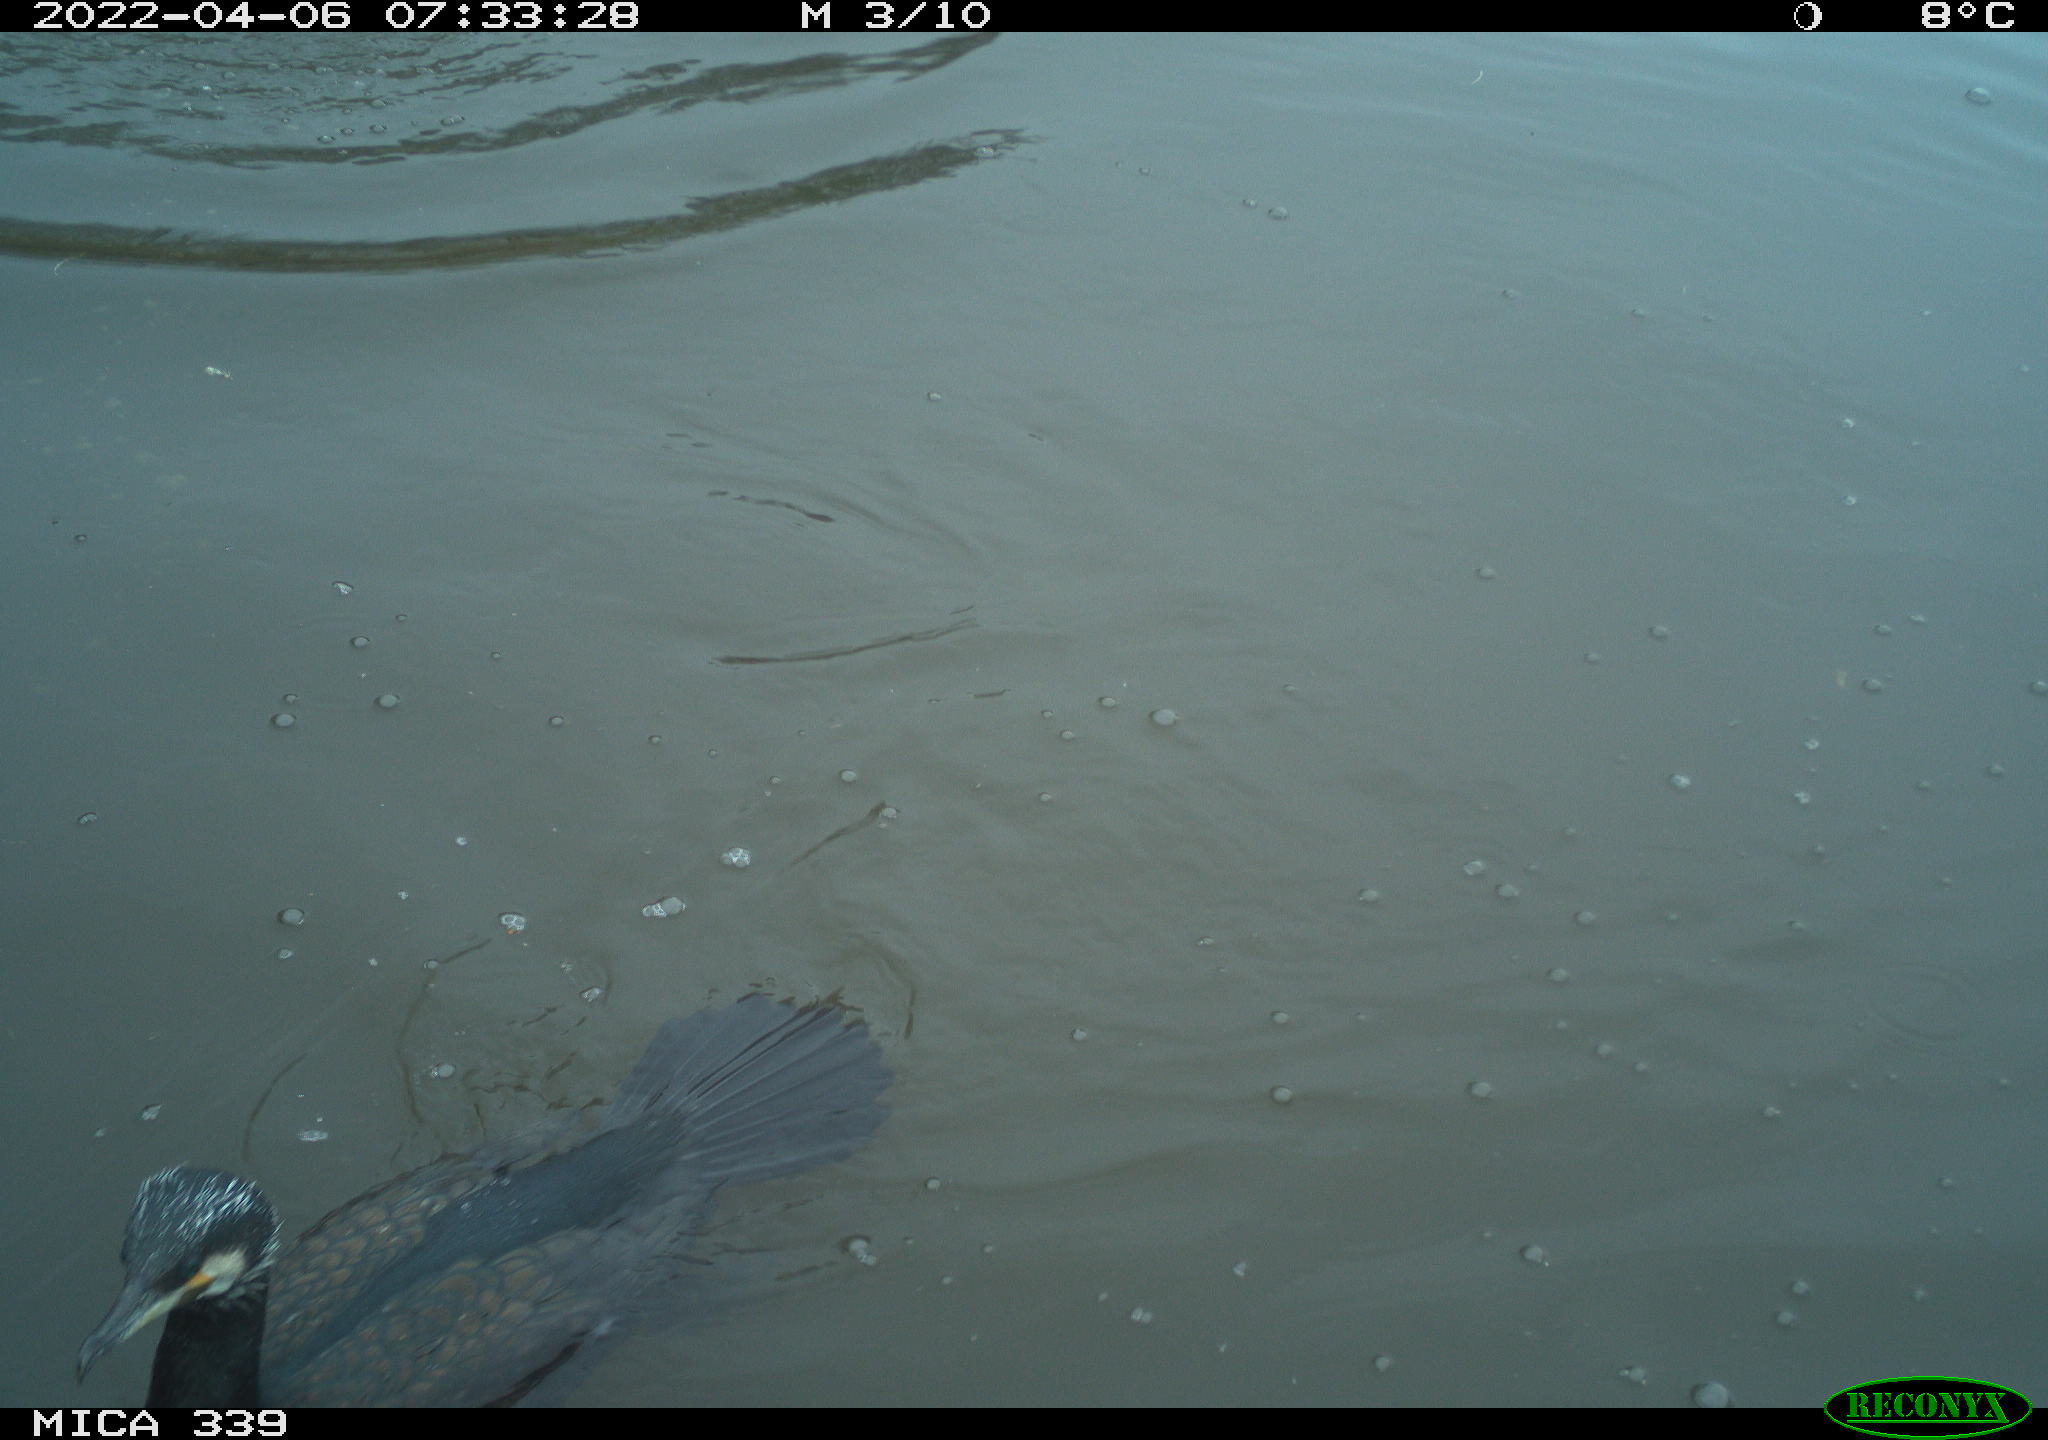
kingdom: Animalia
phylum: Chordata
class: Aves
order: Suliformes
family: Phalacrocoracidae
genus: Phalacrocorax
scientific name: Phalacrocorax carbo
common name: Great cormorant
